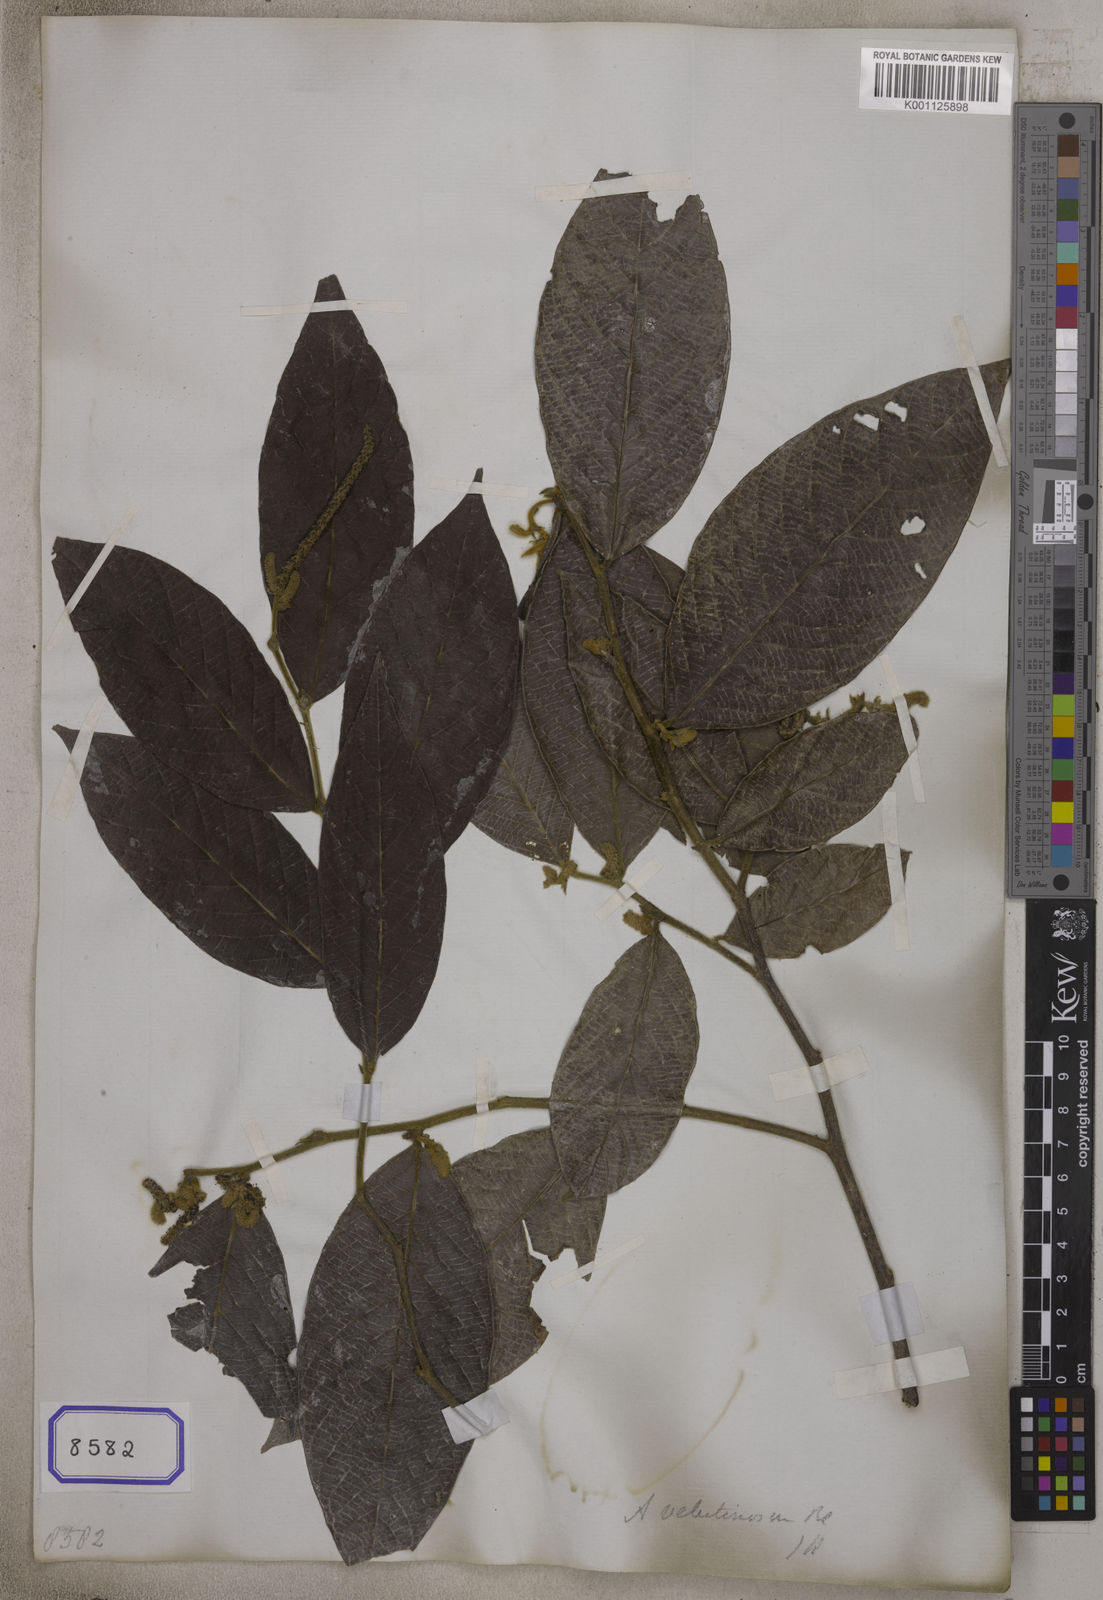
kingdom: Plantae
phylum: Tracheophyta
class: Magnoliopsida
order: Malpighiales
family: Phyllanthaceae
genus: Antidesma
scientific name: Antidesma
